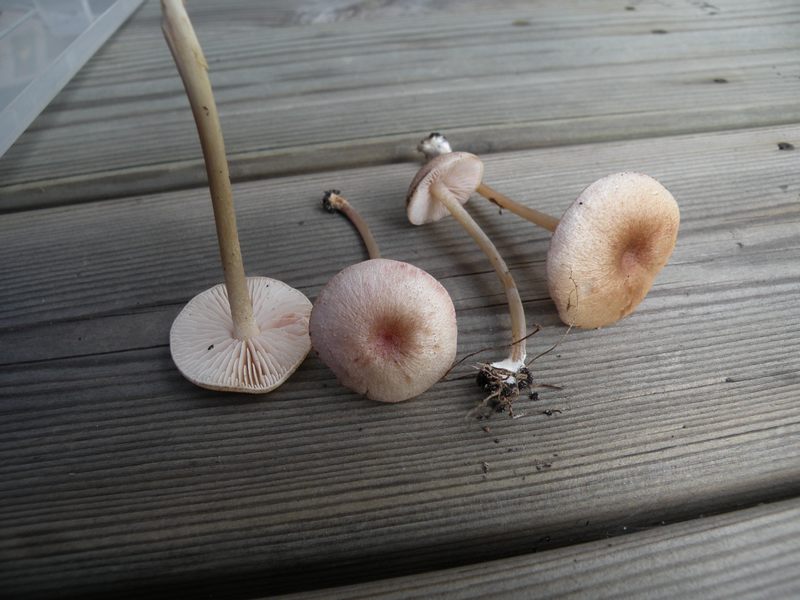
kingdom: Fungi
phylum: Basidiomycota
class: Agaricomycetes
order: Agaricales
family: Entolomataceae
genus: Entoloma
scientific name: Entoloma queletii
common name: rosalilla rødblad
